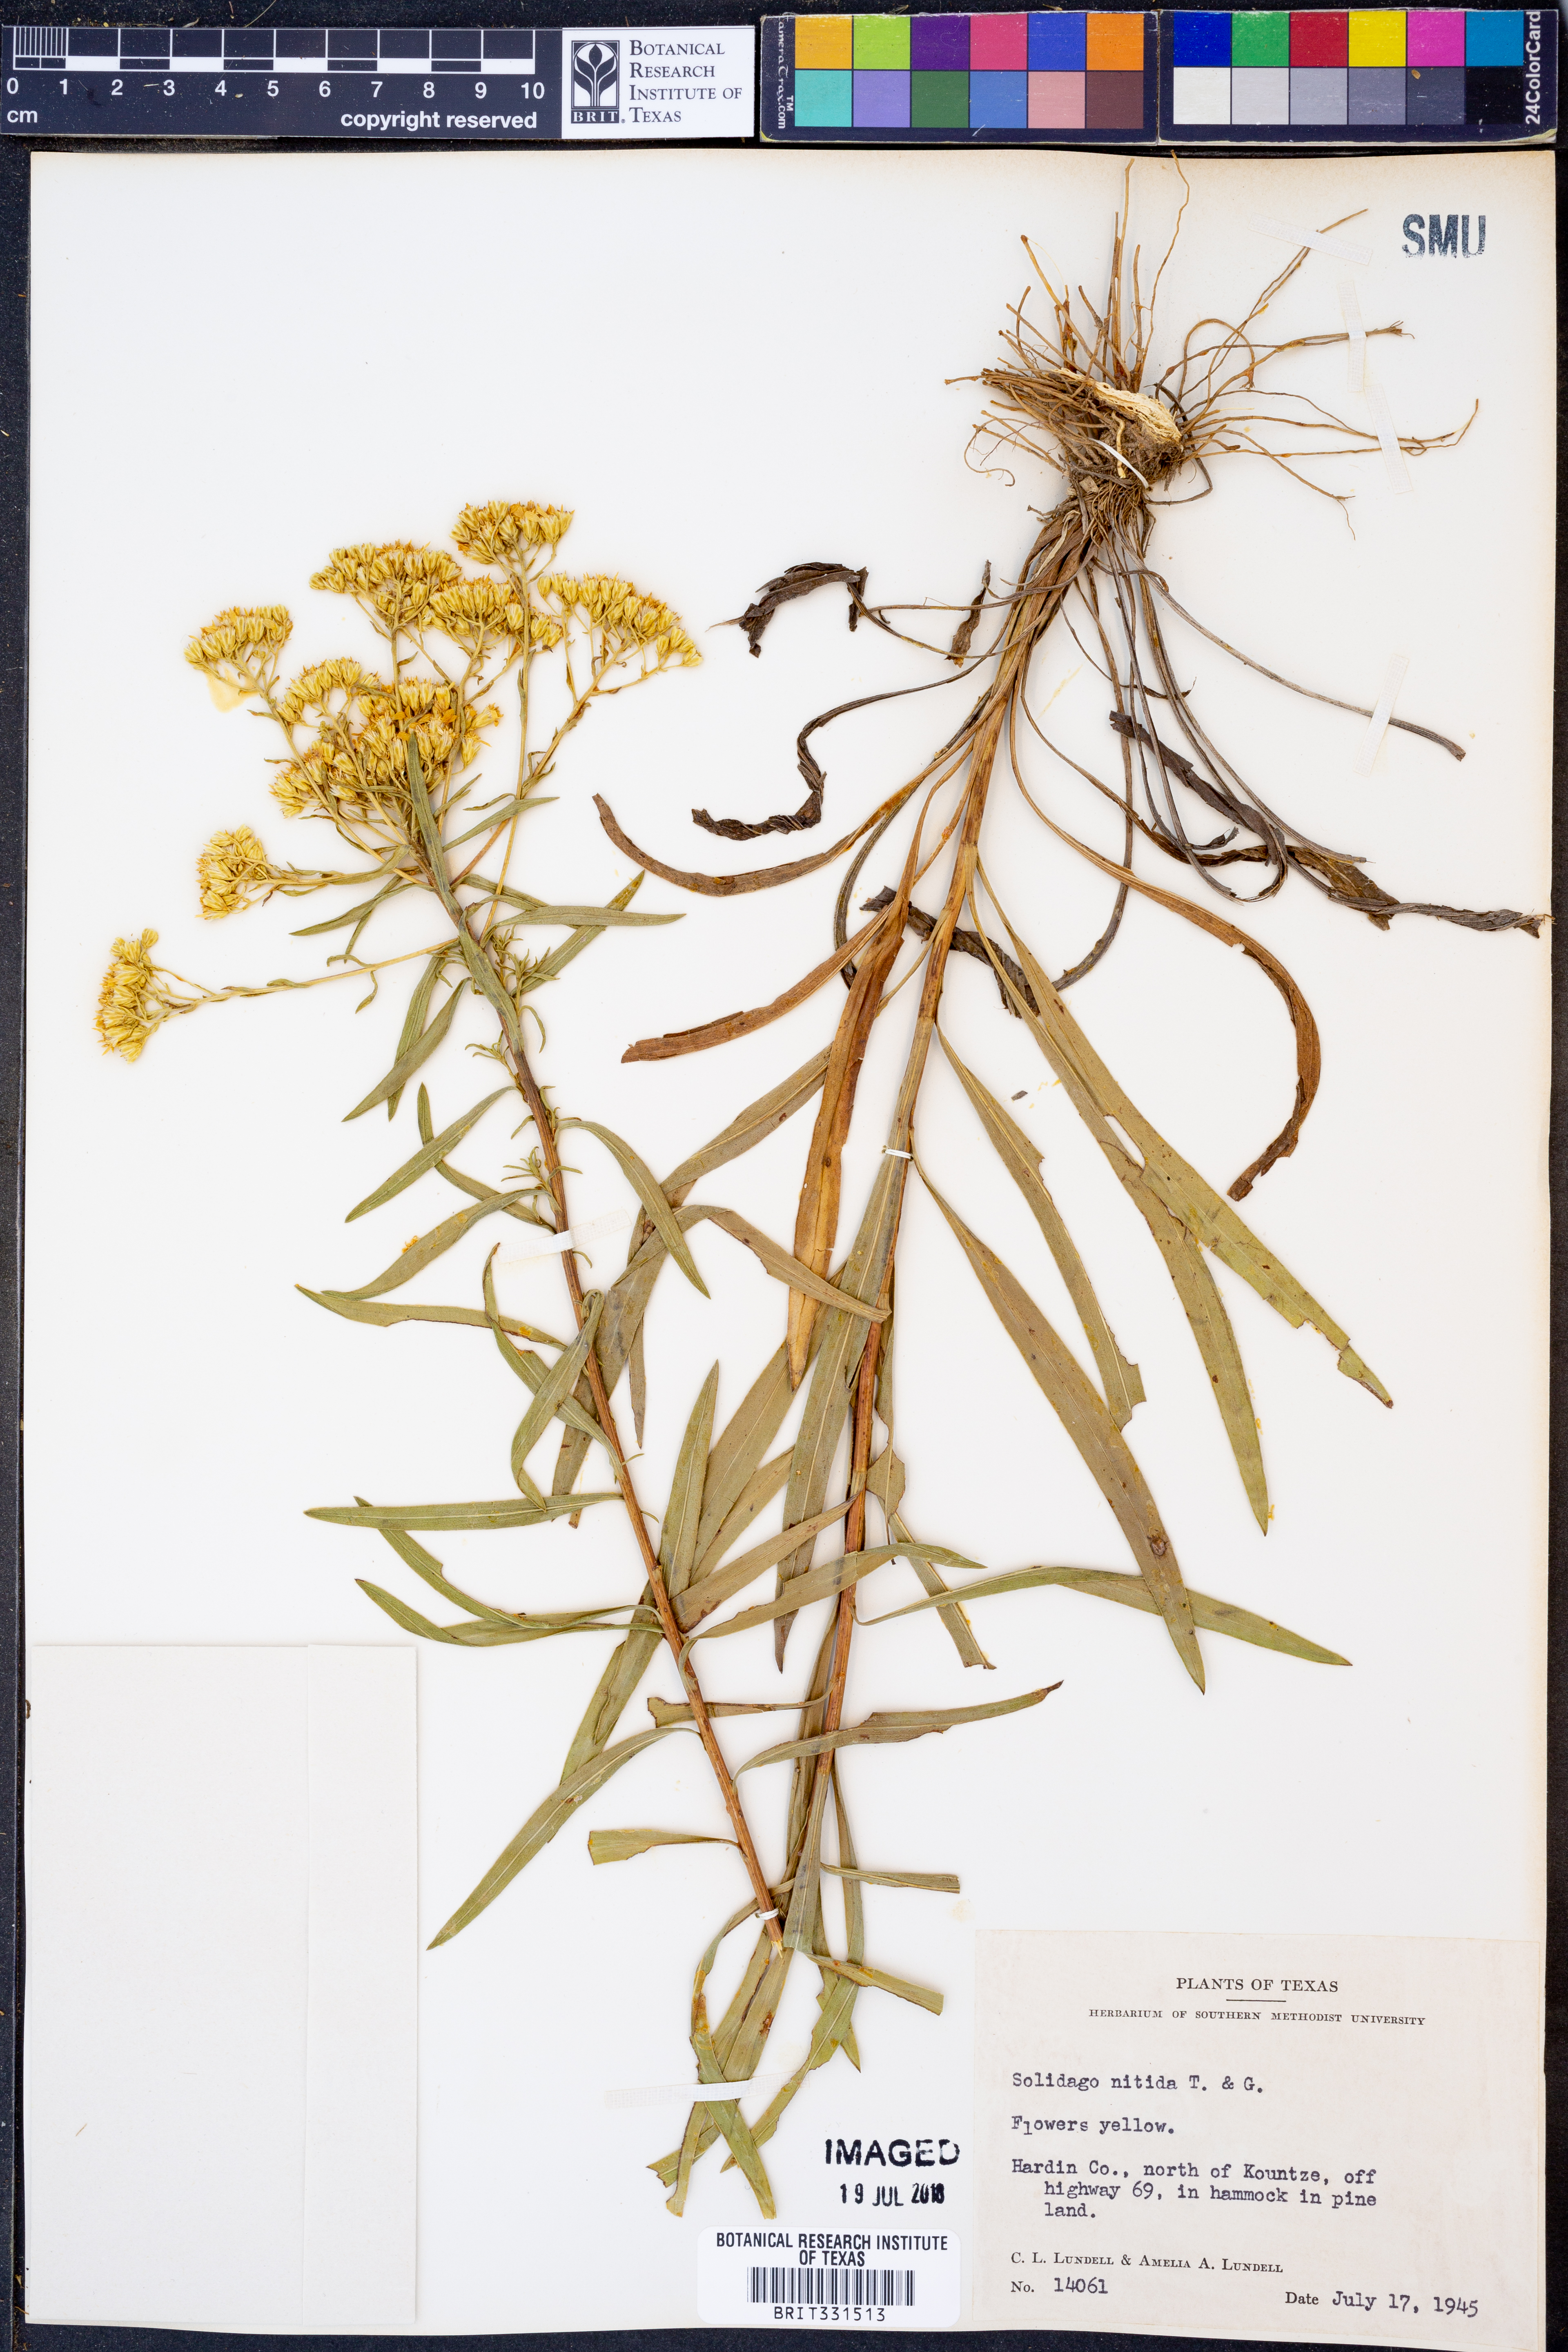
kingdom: Plantae
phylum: Tracheophyta
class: Magnoliopsida
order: Asterales
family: Asteraceae
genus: Solidago
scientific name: Solidago nitida
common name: Shiny goldenrod
